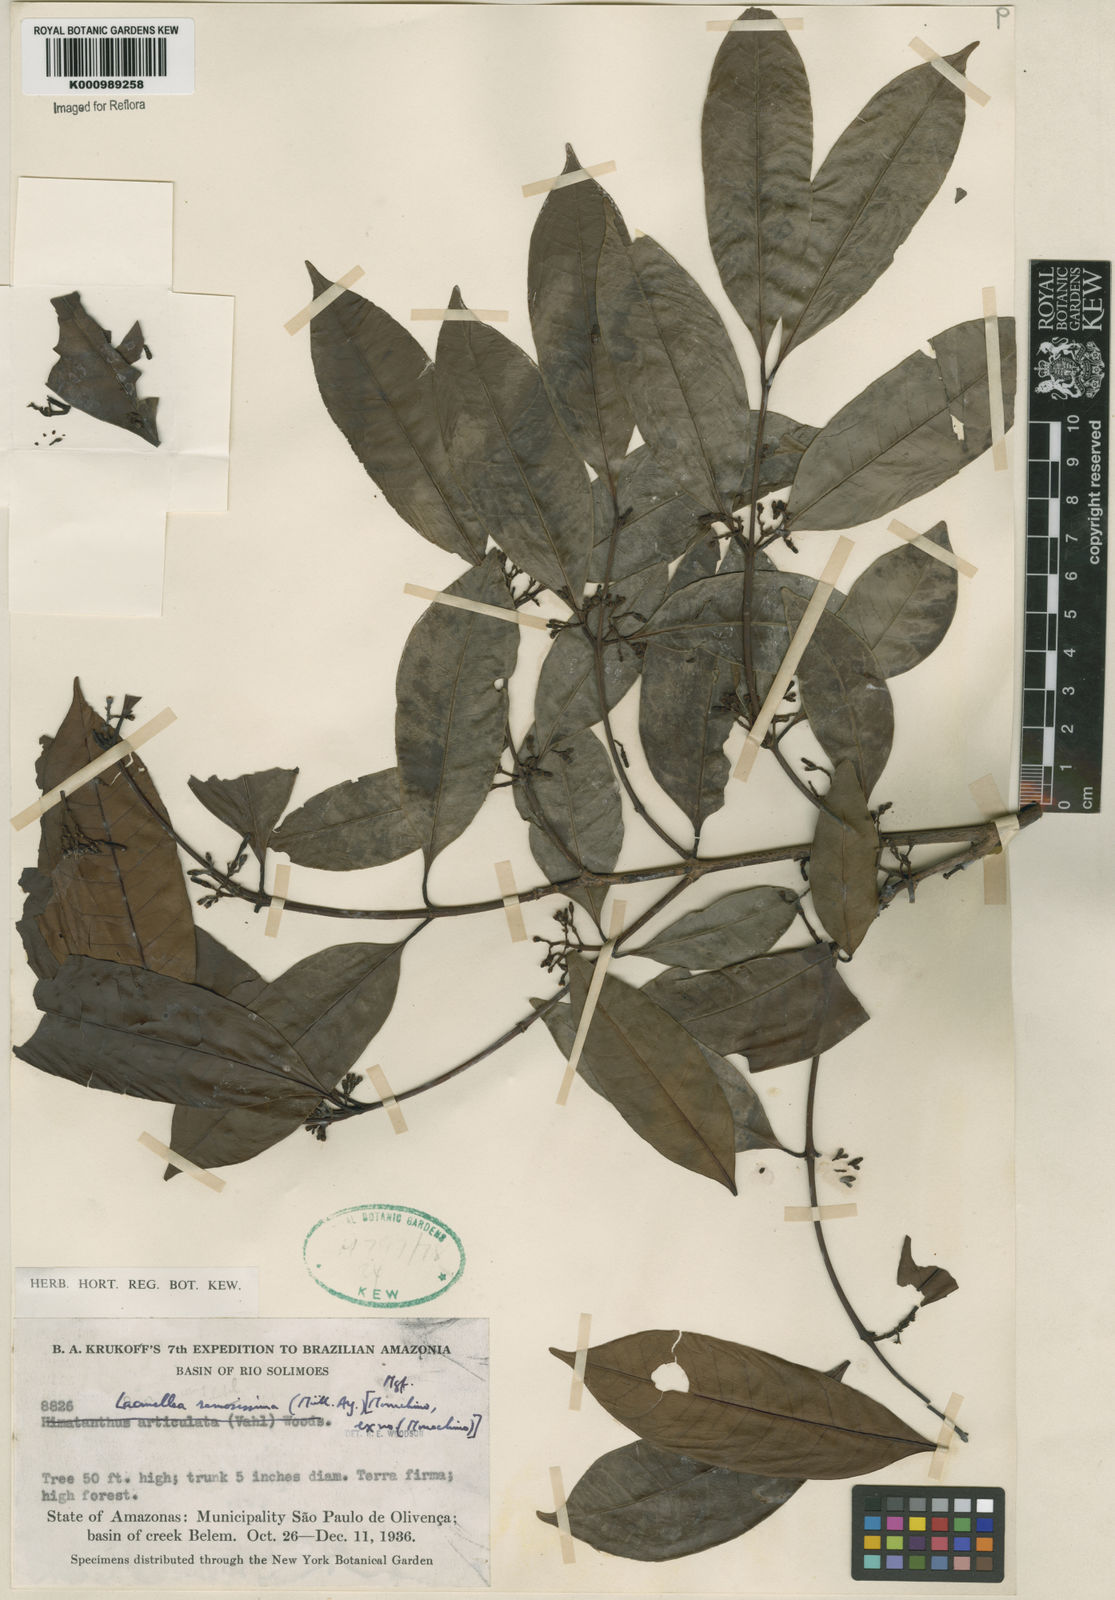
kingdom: Plantae
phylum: Tracheophyta
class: Magnoliopsida
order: Gentianales
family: Apocynaceae
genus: Lacmellea
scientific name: Lacmellea
